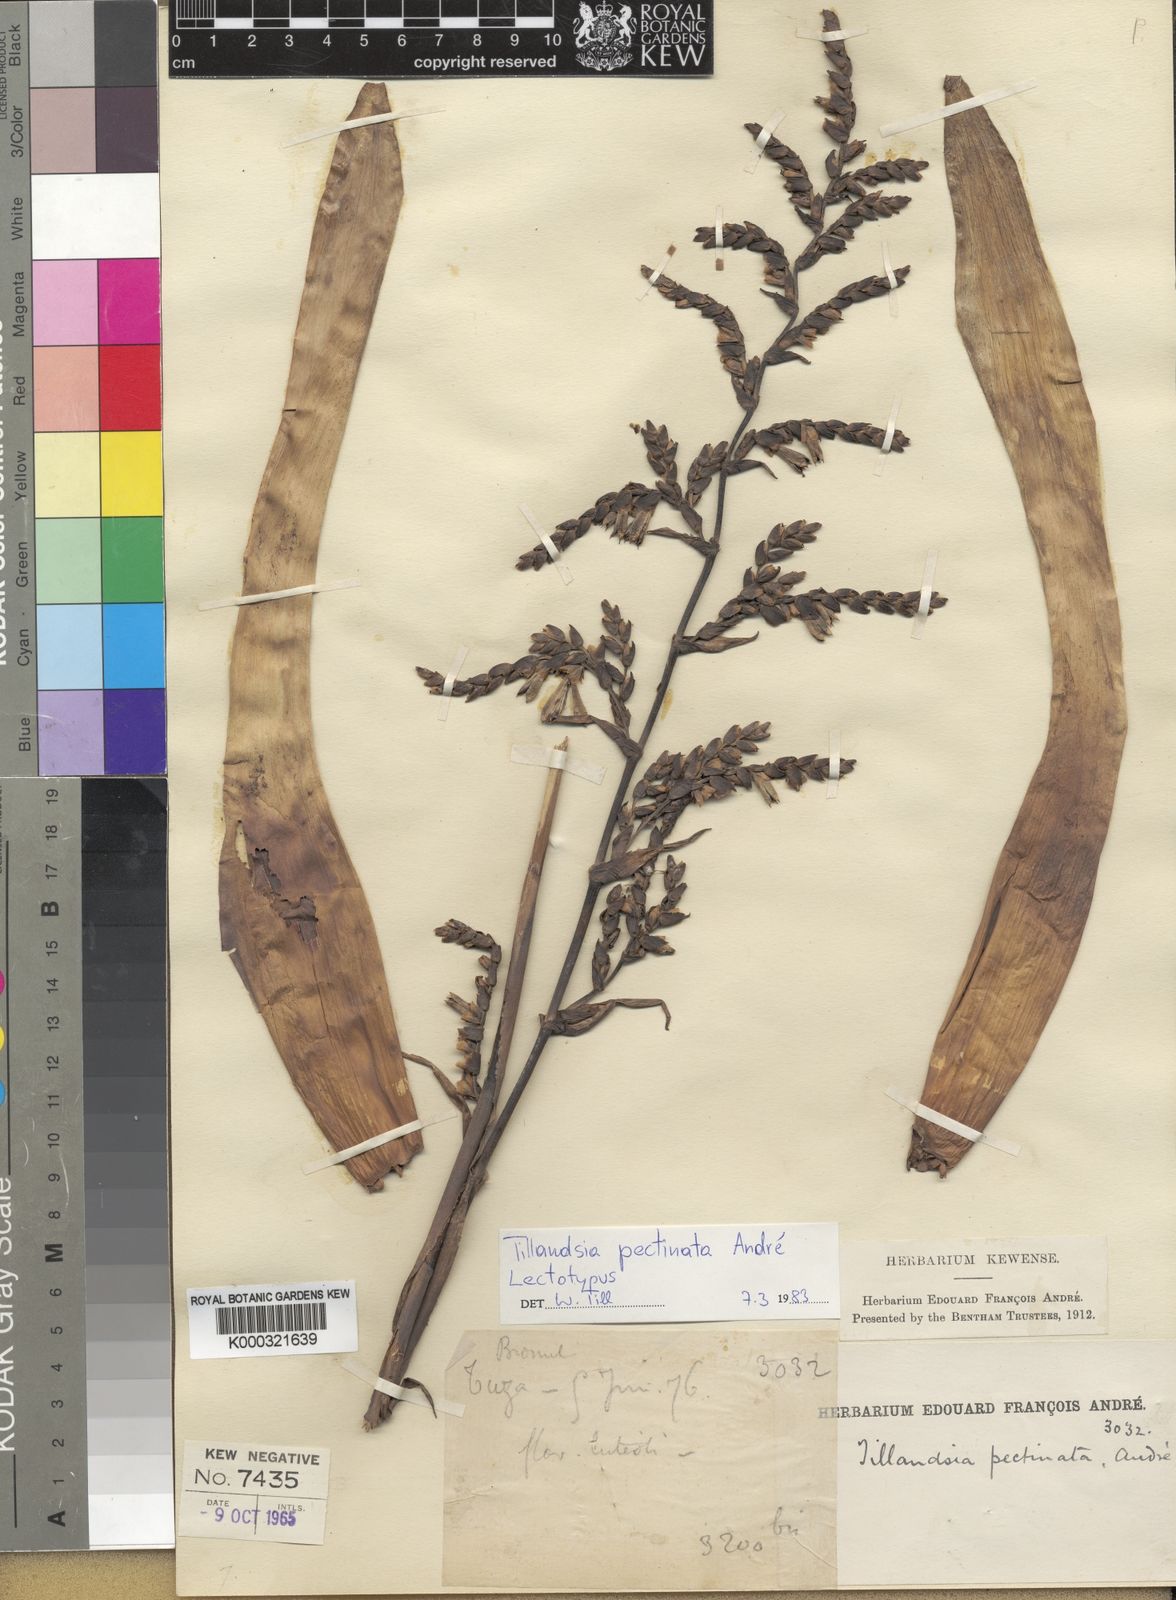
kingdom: Plantae
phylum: Tracheophyta
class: Liliopsida
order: Poales
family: Bromeliaceae
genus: Tillandsia
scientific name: Tillandsia
